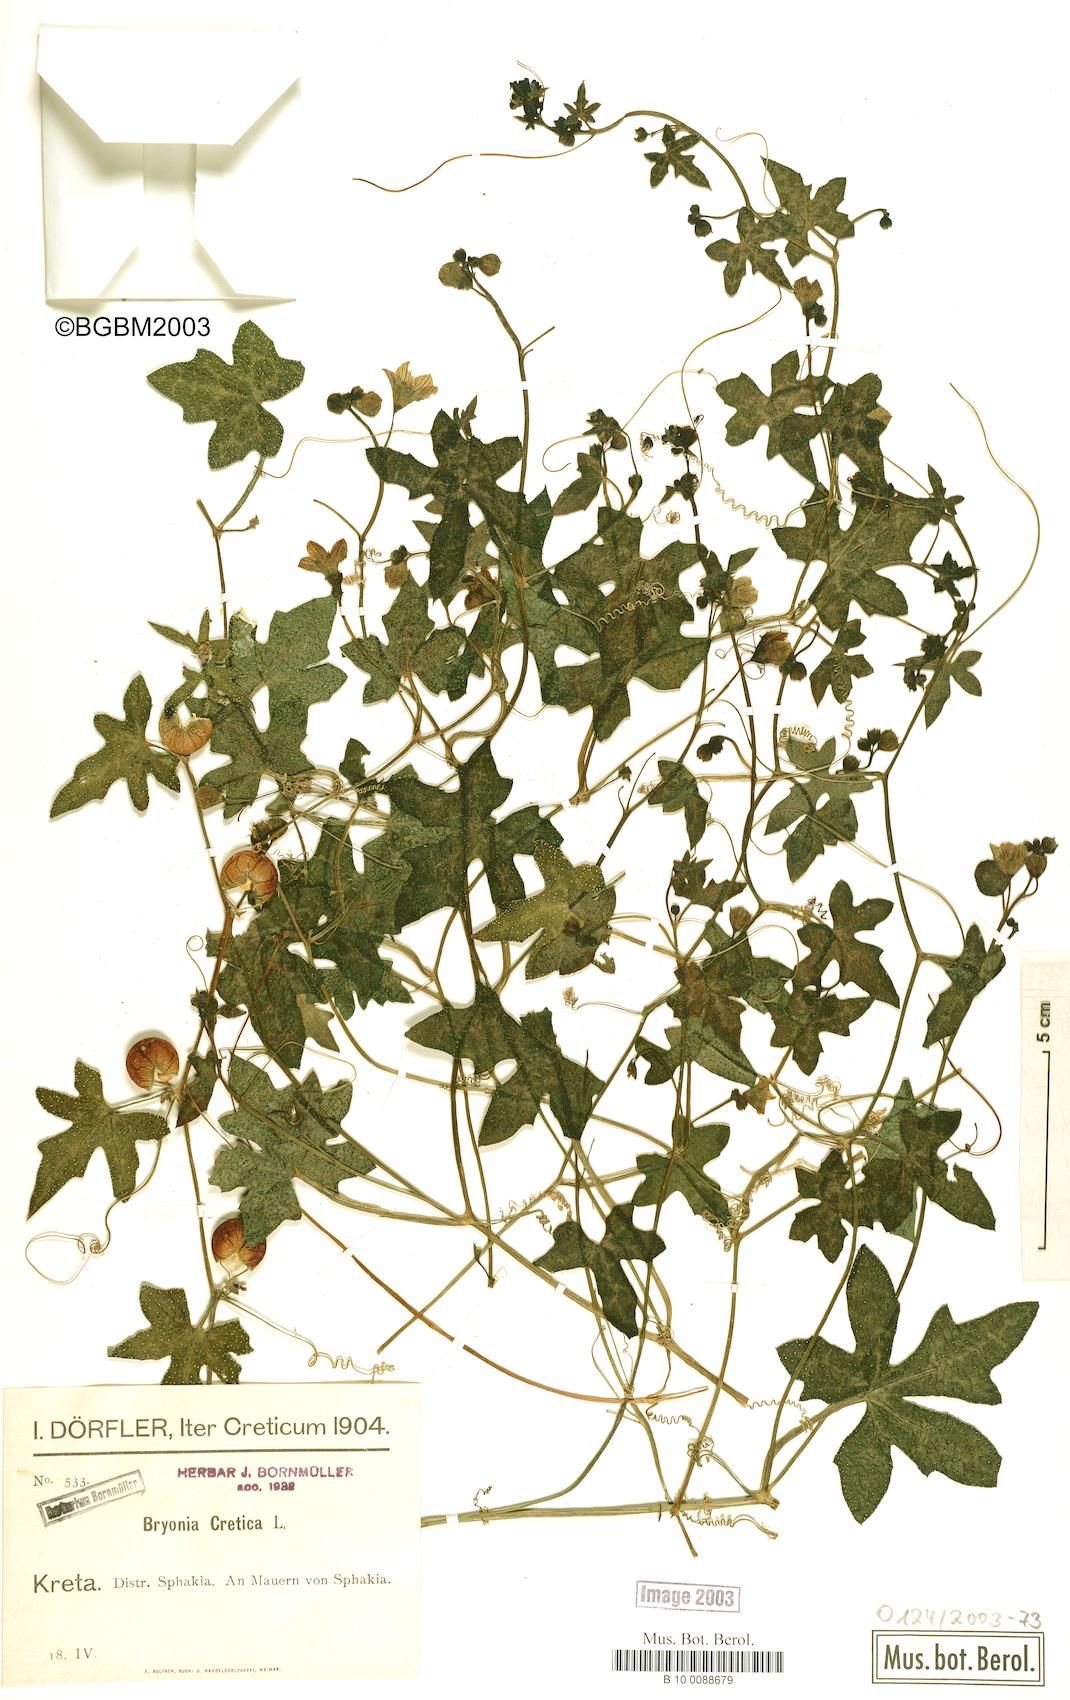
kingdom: Plantae
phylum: Tracheophyta
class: Magnoliopsida
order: Cucurbitales
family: Cucurbitaceae
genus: Bryonia
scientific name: Bryonia cretica
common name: Cretan bryony
